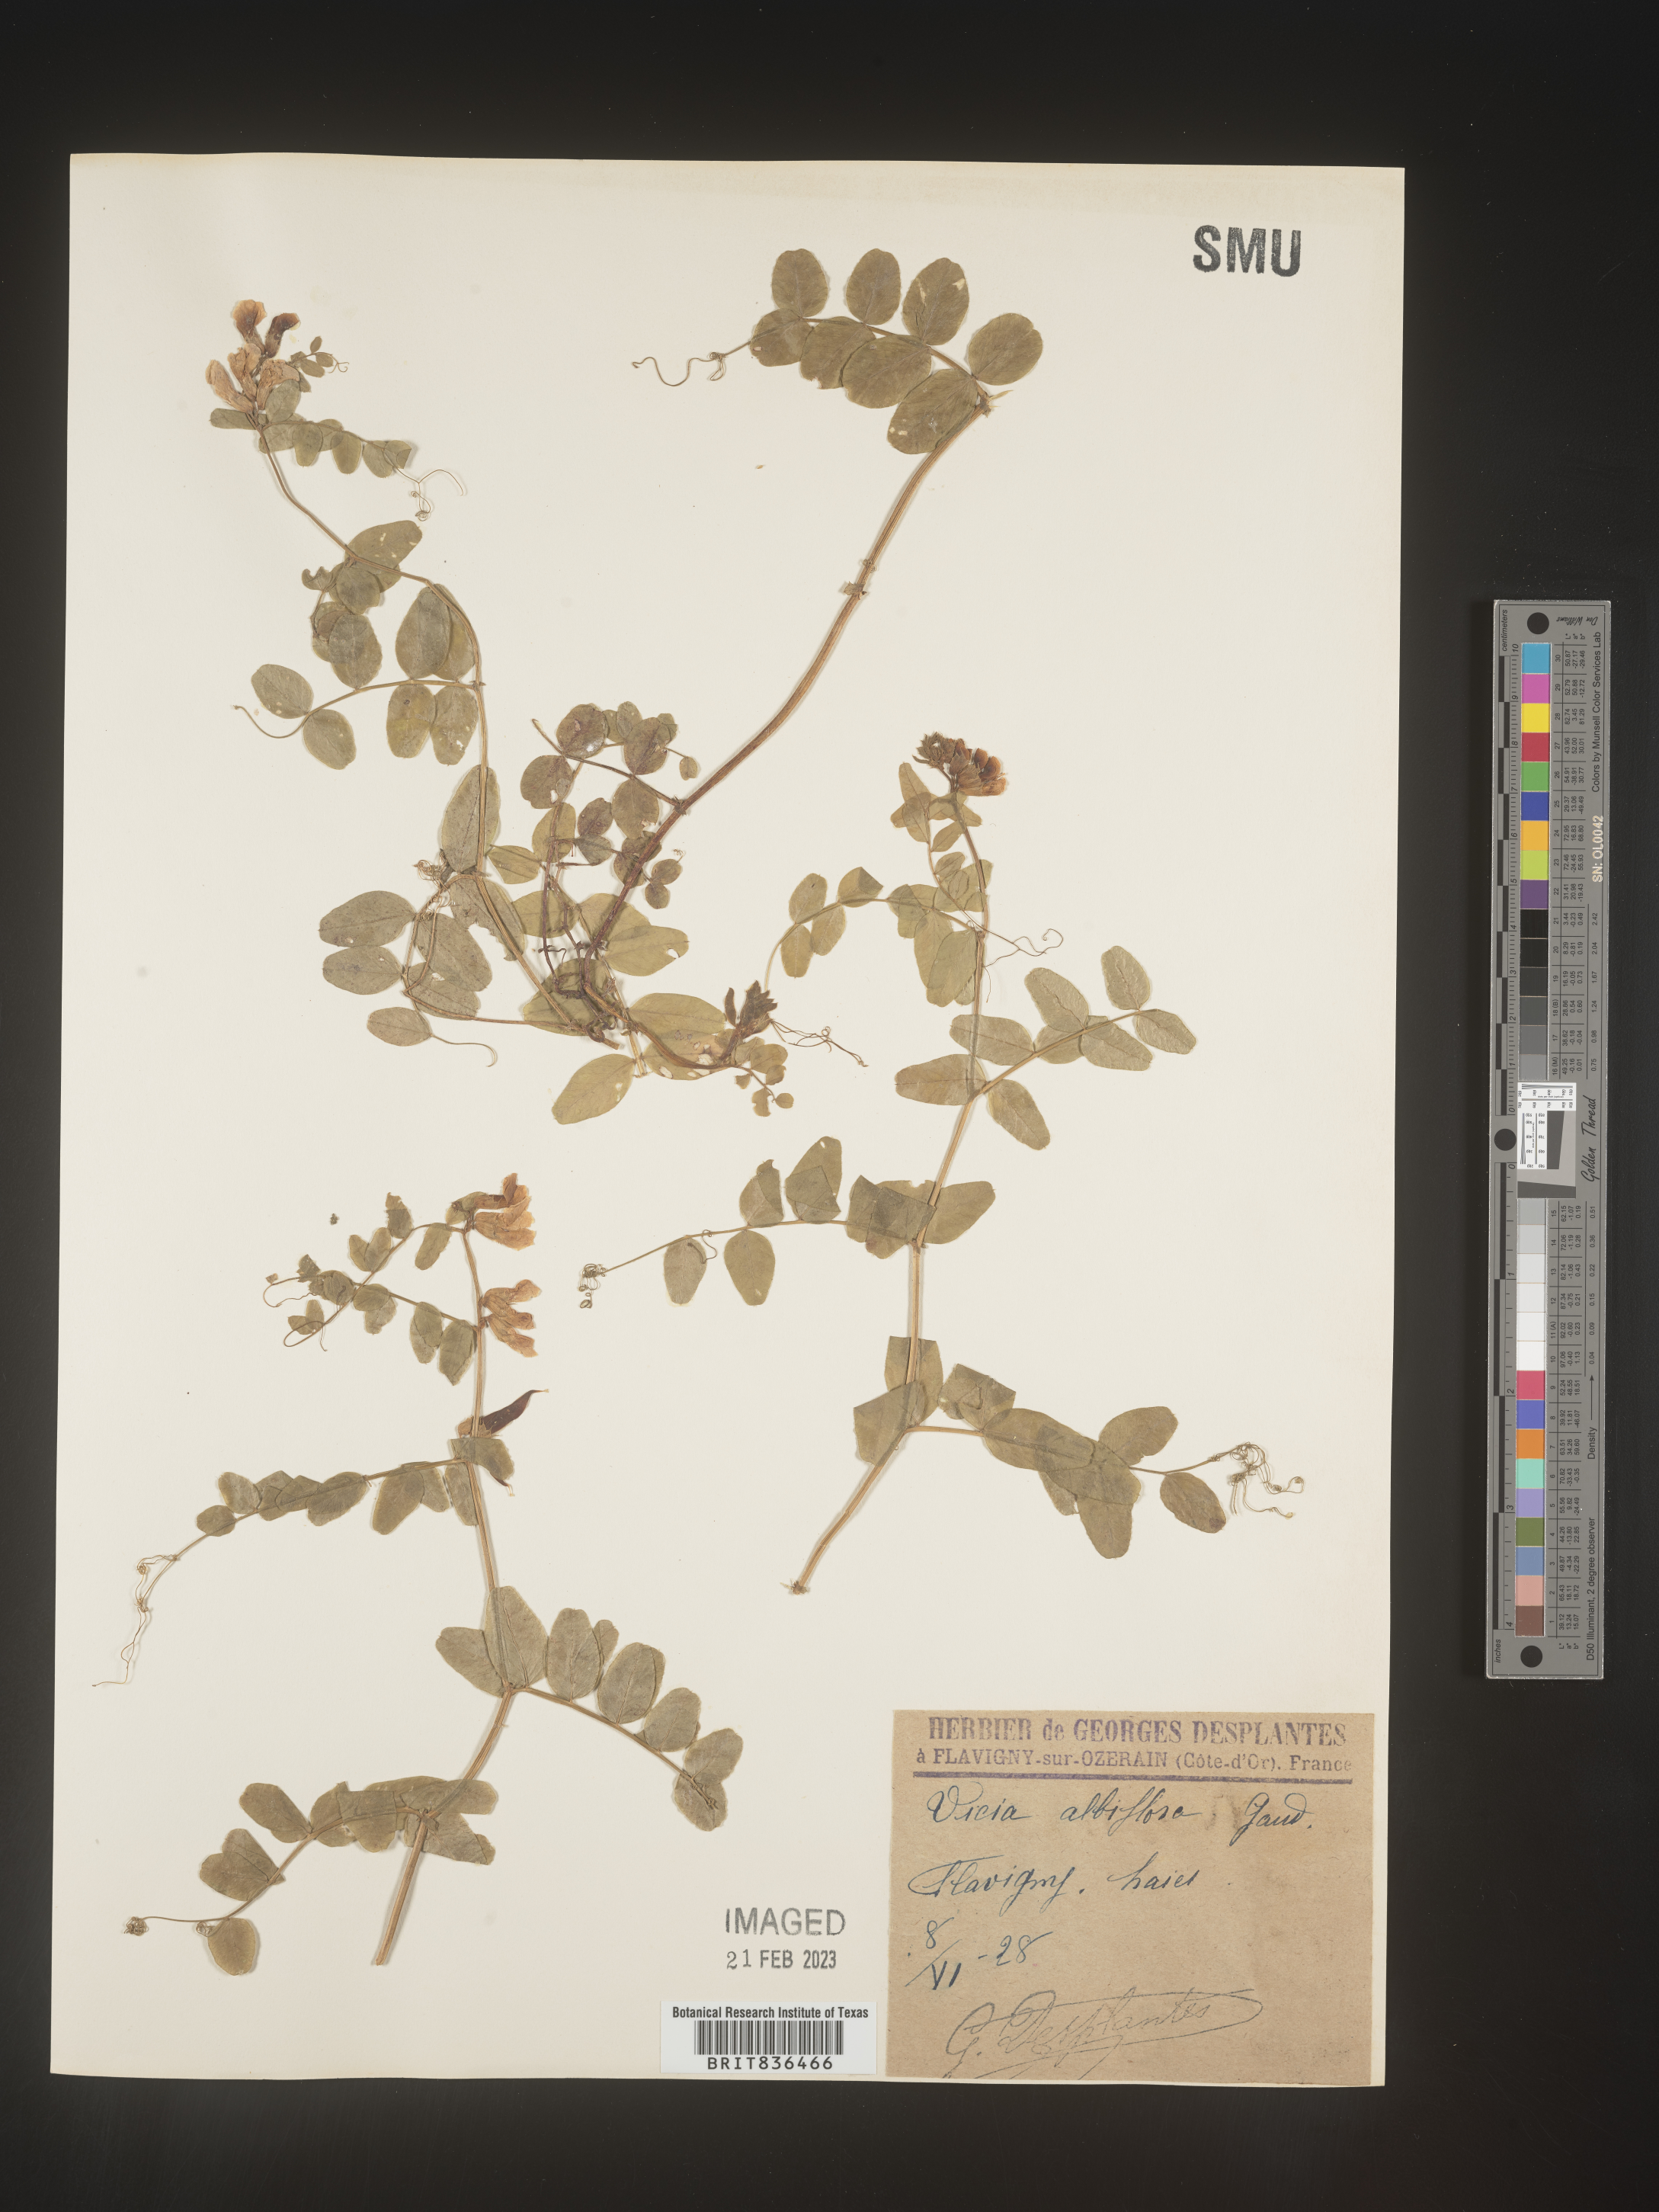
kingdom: Plantae
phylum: Tracheophyta
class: Magnoliopsida
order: Fabales
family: Fabaceae
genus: Vicia
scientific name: Vicia
